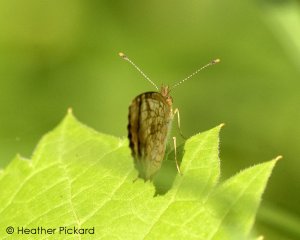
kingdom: Animalia
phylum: Arthropoda
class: Insecta
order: Lepidoptera
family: Nymphalidae
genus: Phyciodes
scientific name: Phyciodes tharos
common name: Pearl Crescent
